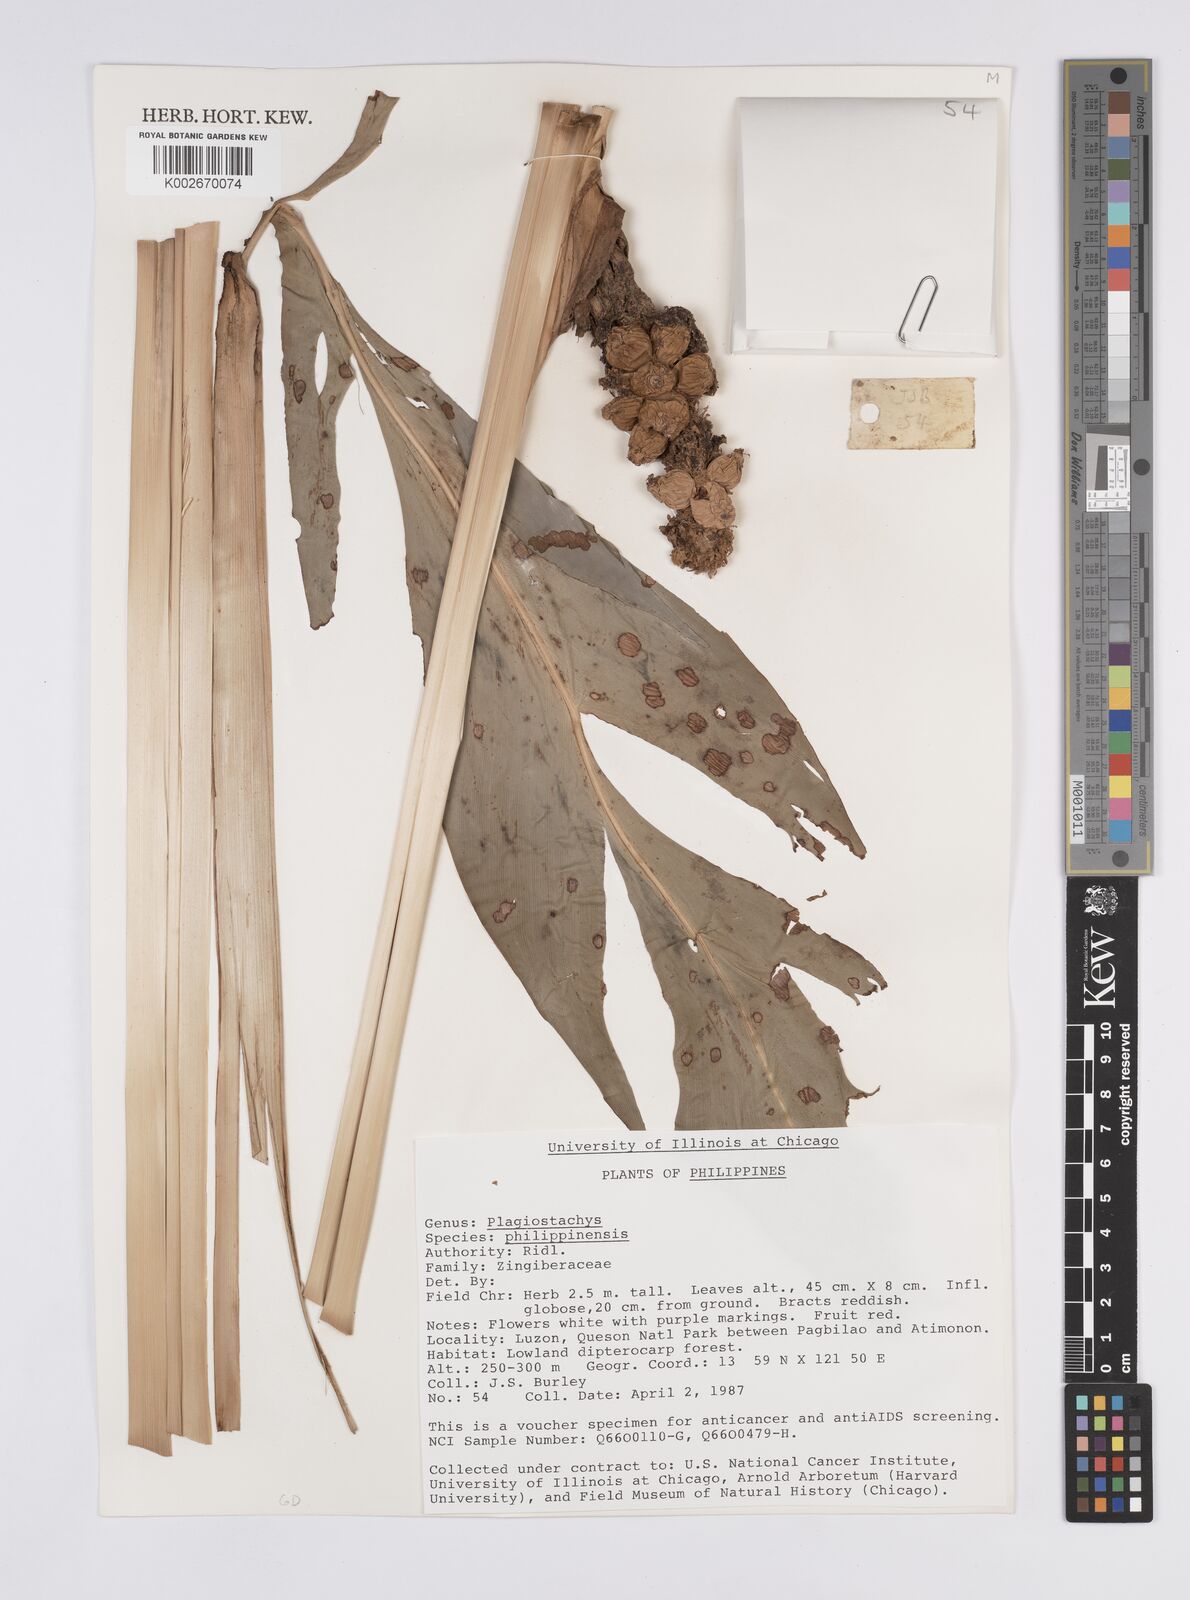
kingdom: Plantae
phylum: Tracheophyta
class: Liliopsida
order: Zingiberales
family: Zingiberaceae
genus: Plagiostachys
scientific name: Plagiostachys philippinensis
